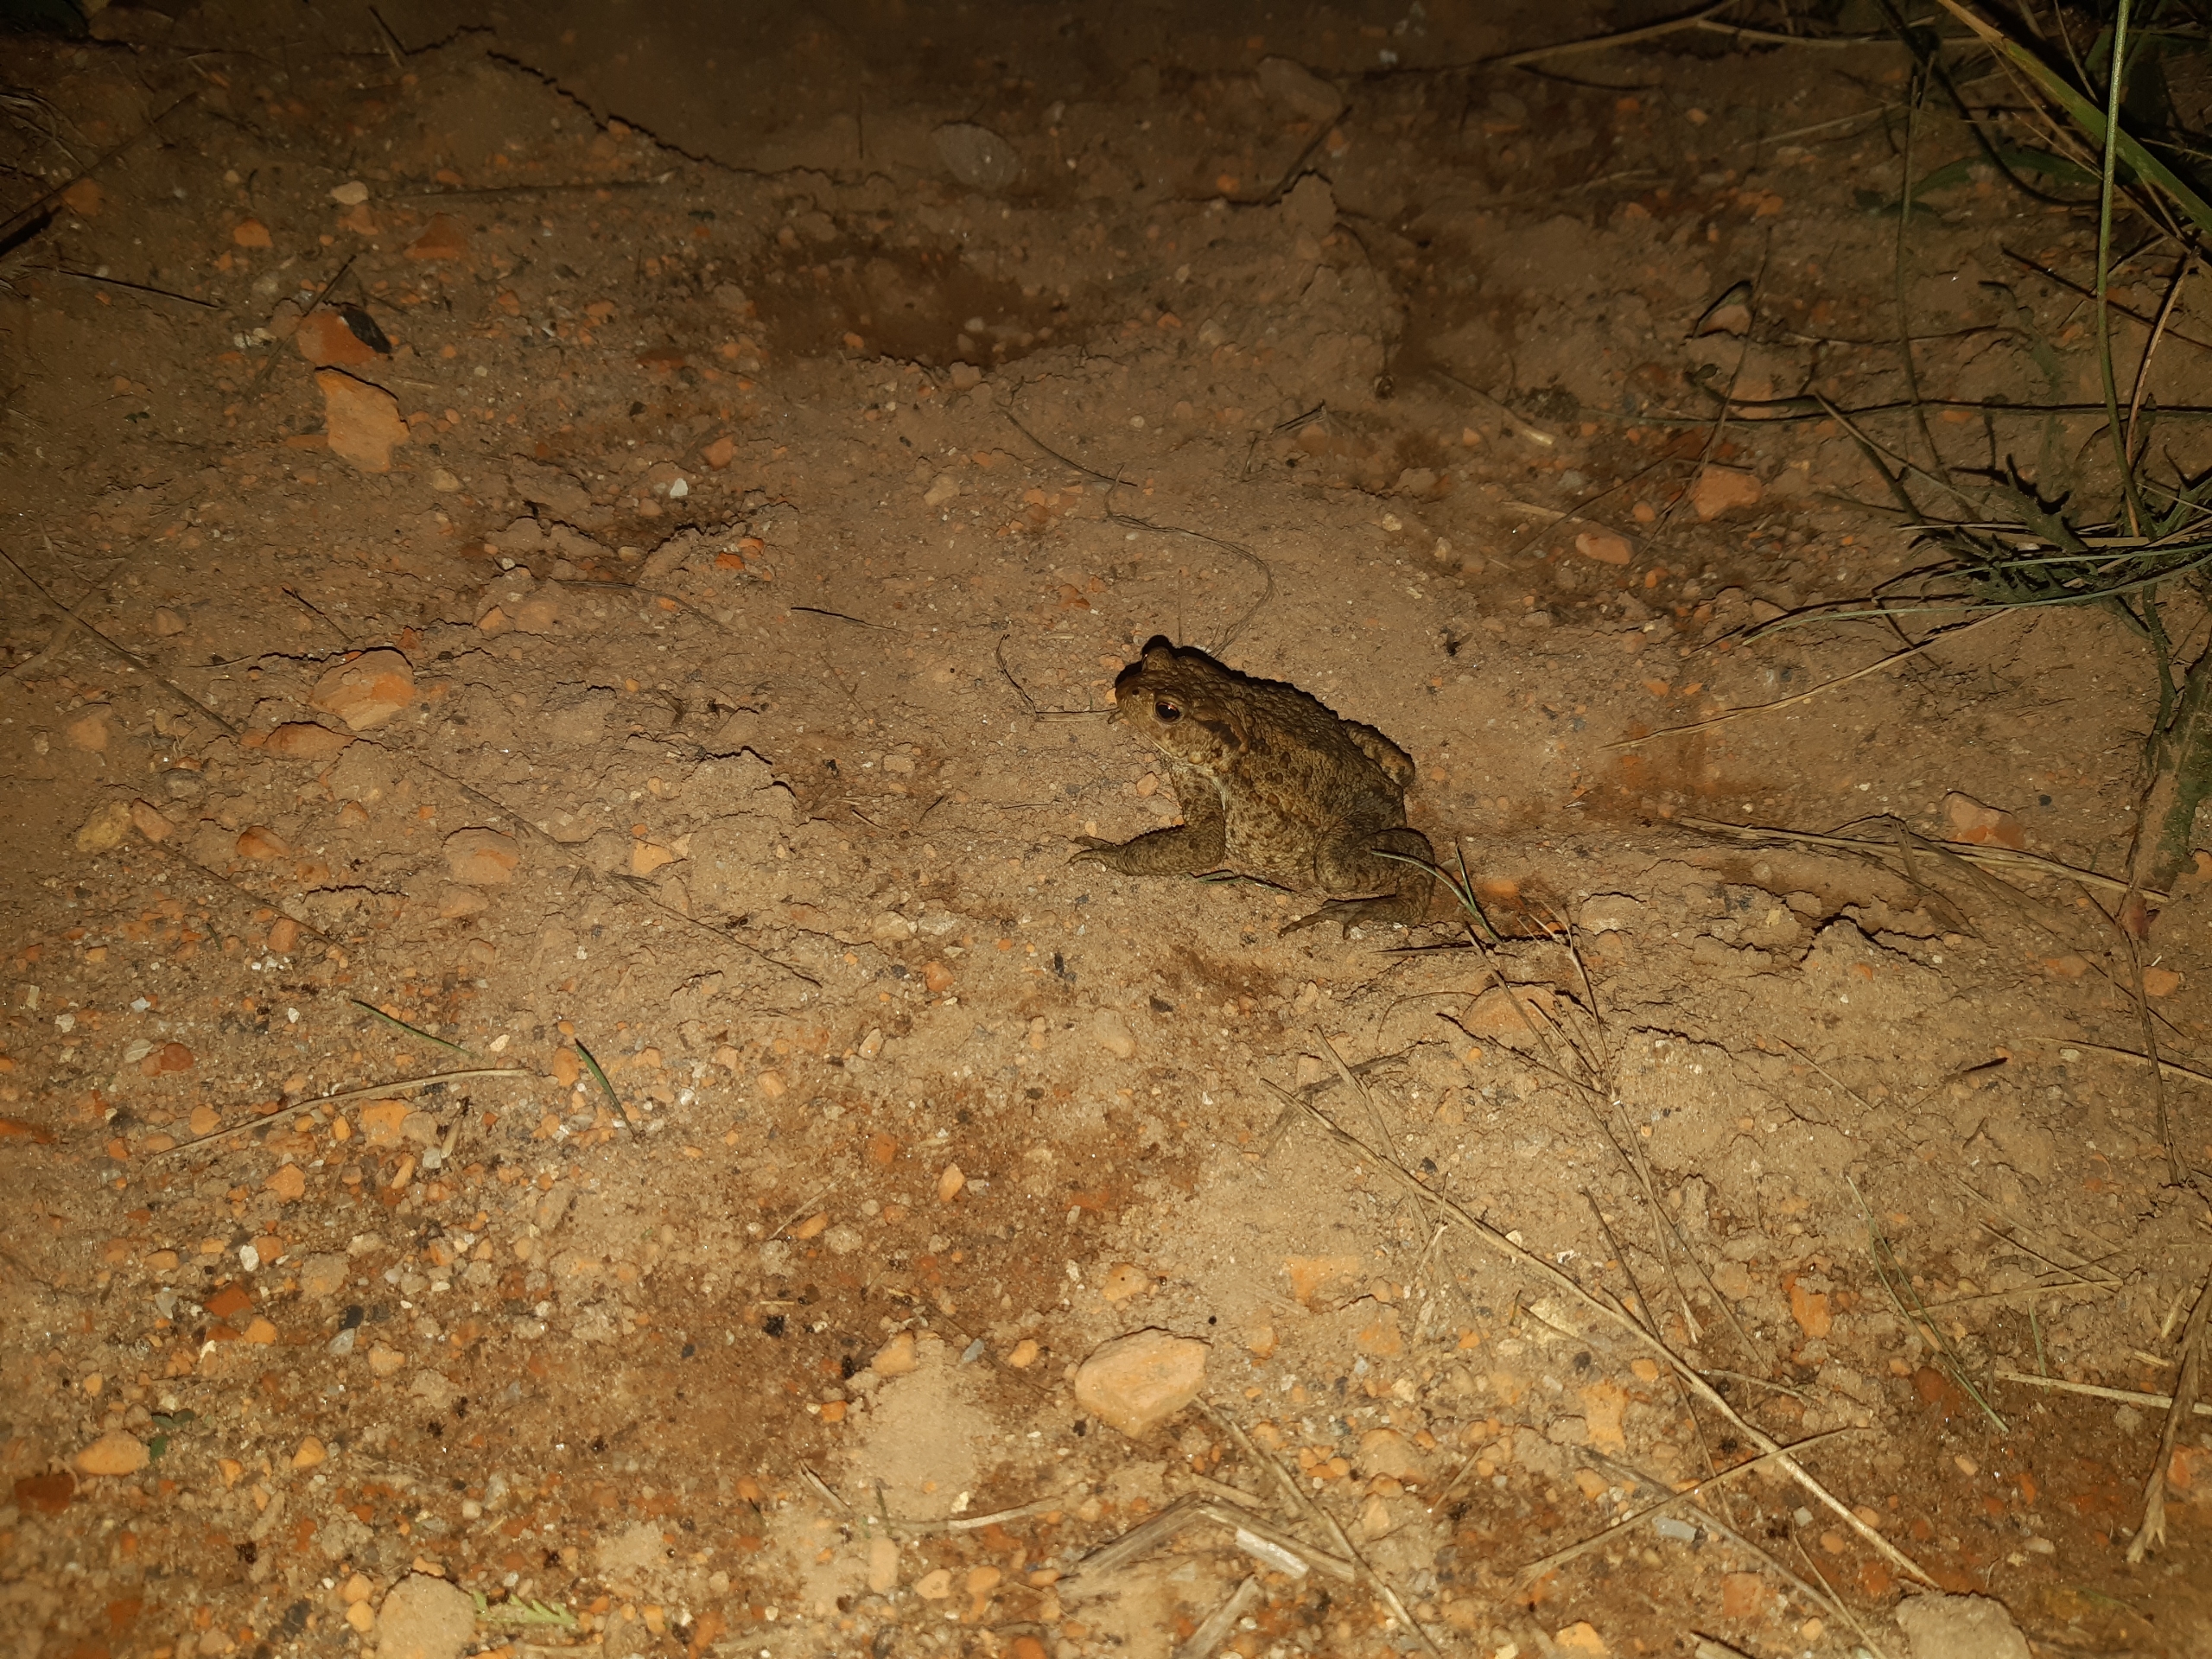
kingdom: Animalia
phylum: Chordata
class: Amphibia
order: Anura
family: Bufonidae
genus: Bufo
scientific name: Bufo bufo
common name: Skrubtudse
